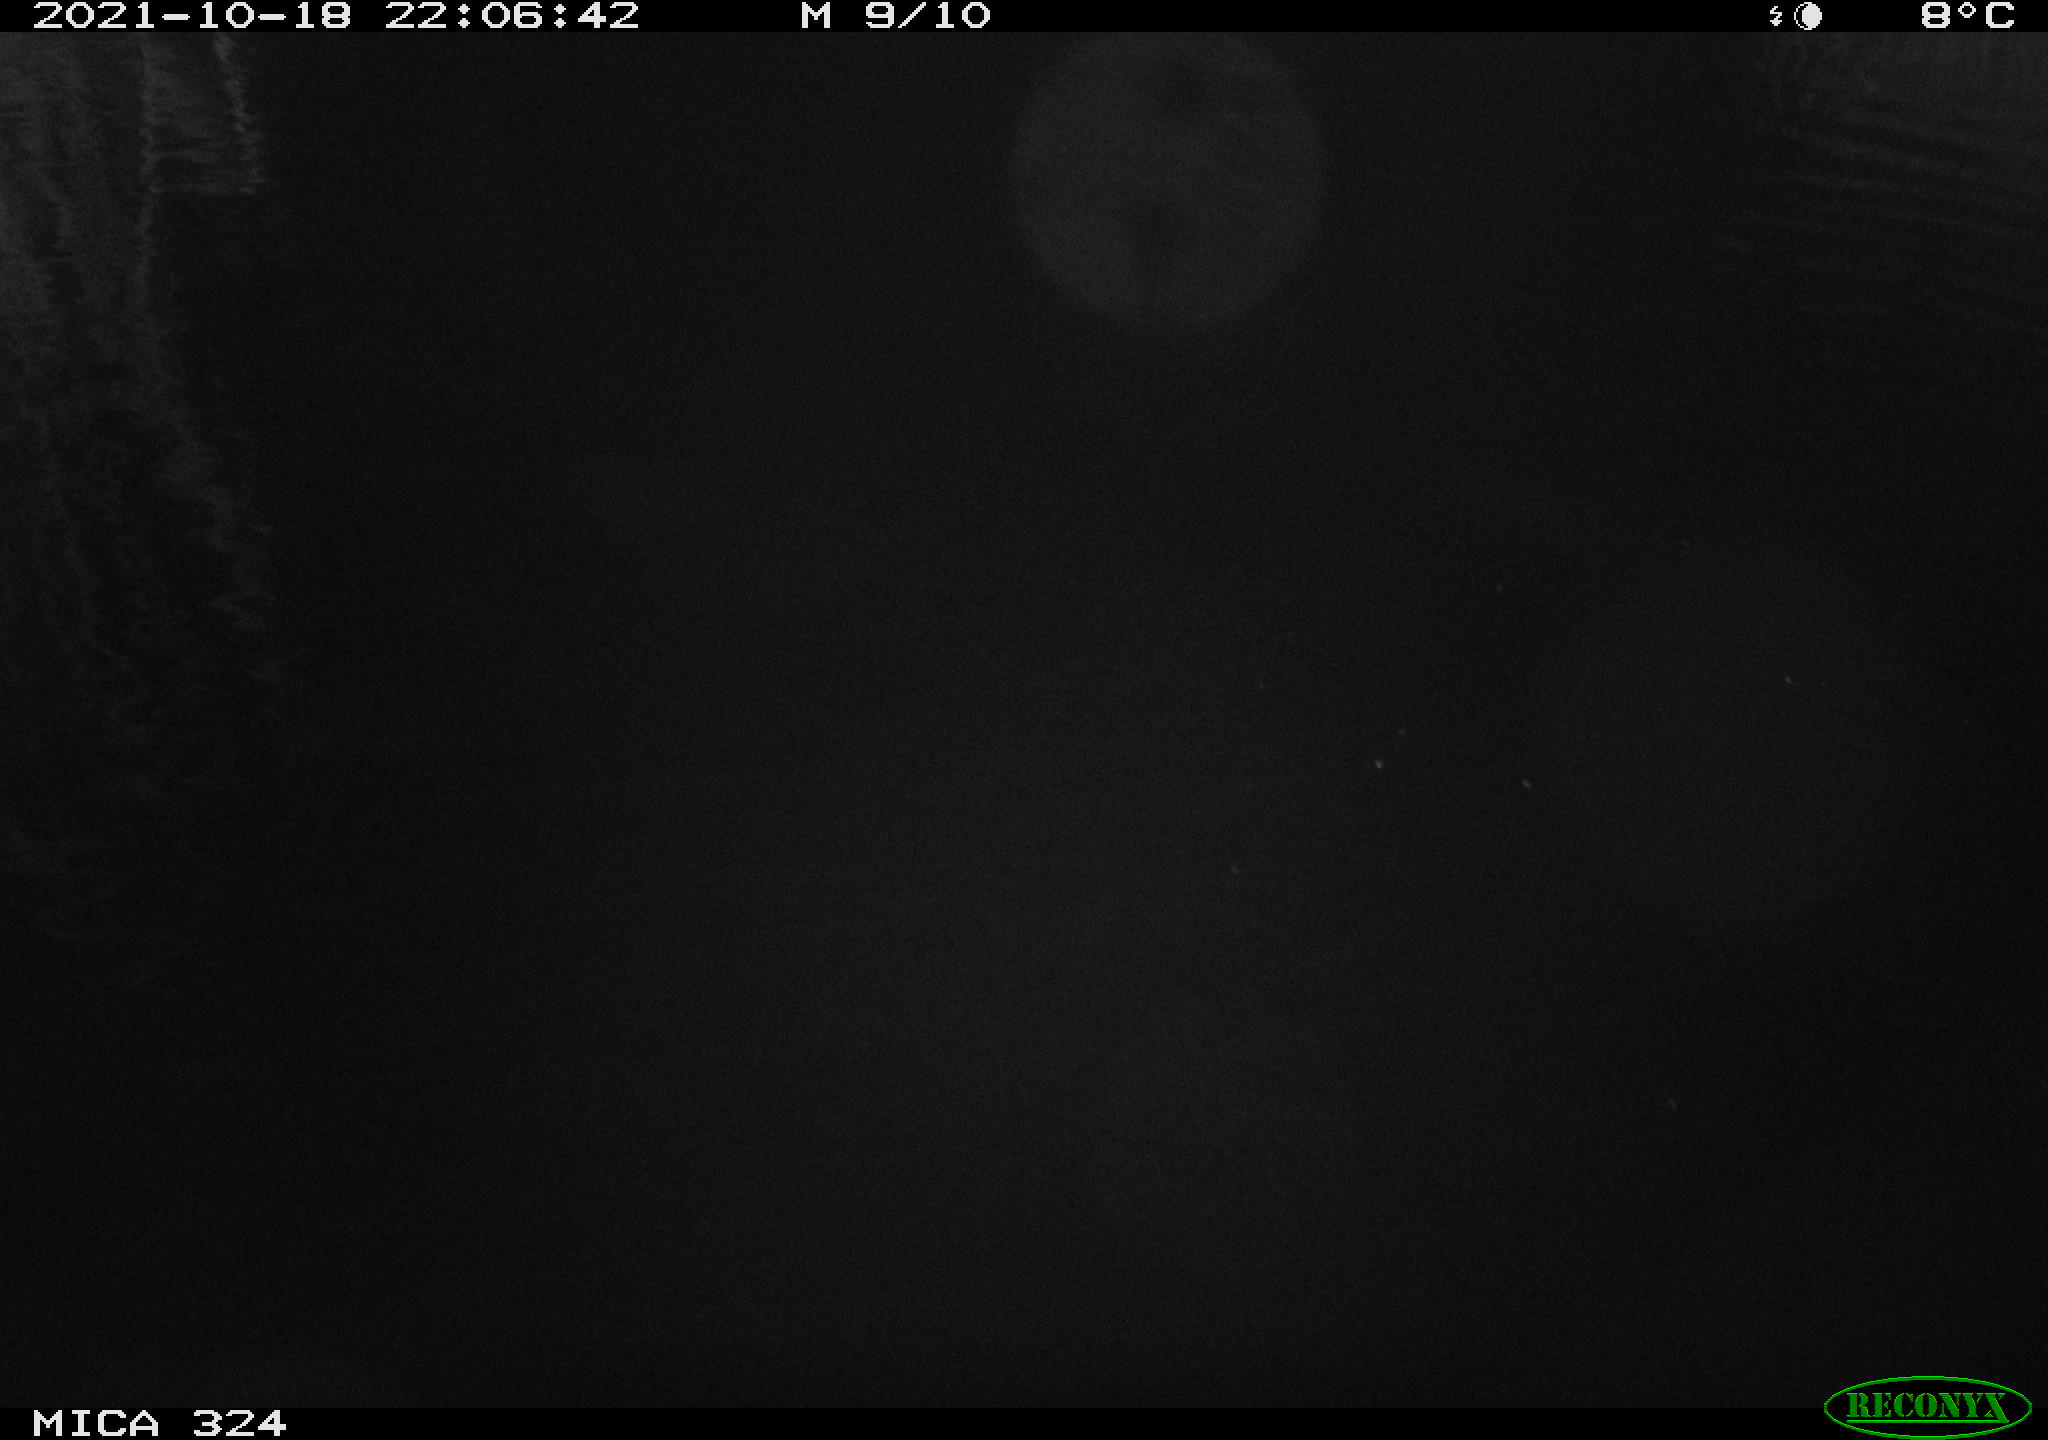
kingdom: Animalia
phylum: Chordata
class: Mammalia
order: Rodentia
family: Cricetidae
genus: Ondatra
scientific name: Ondatra zibethicus
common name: Muskrat
